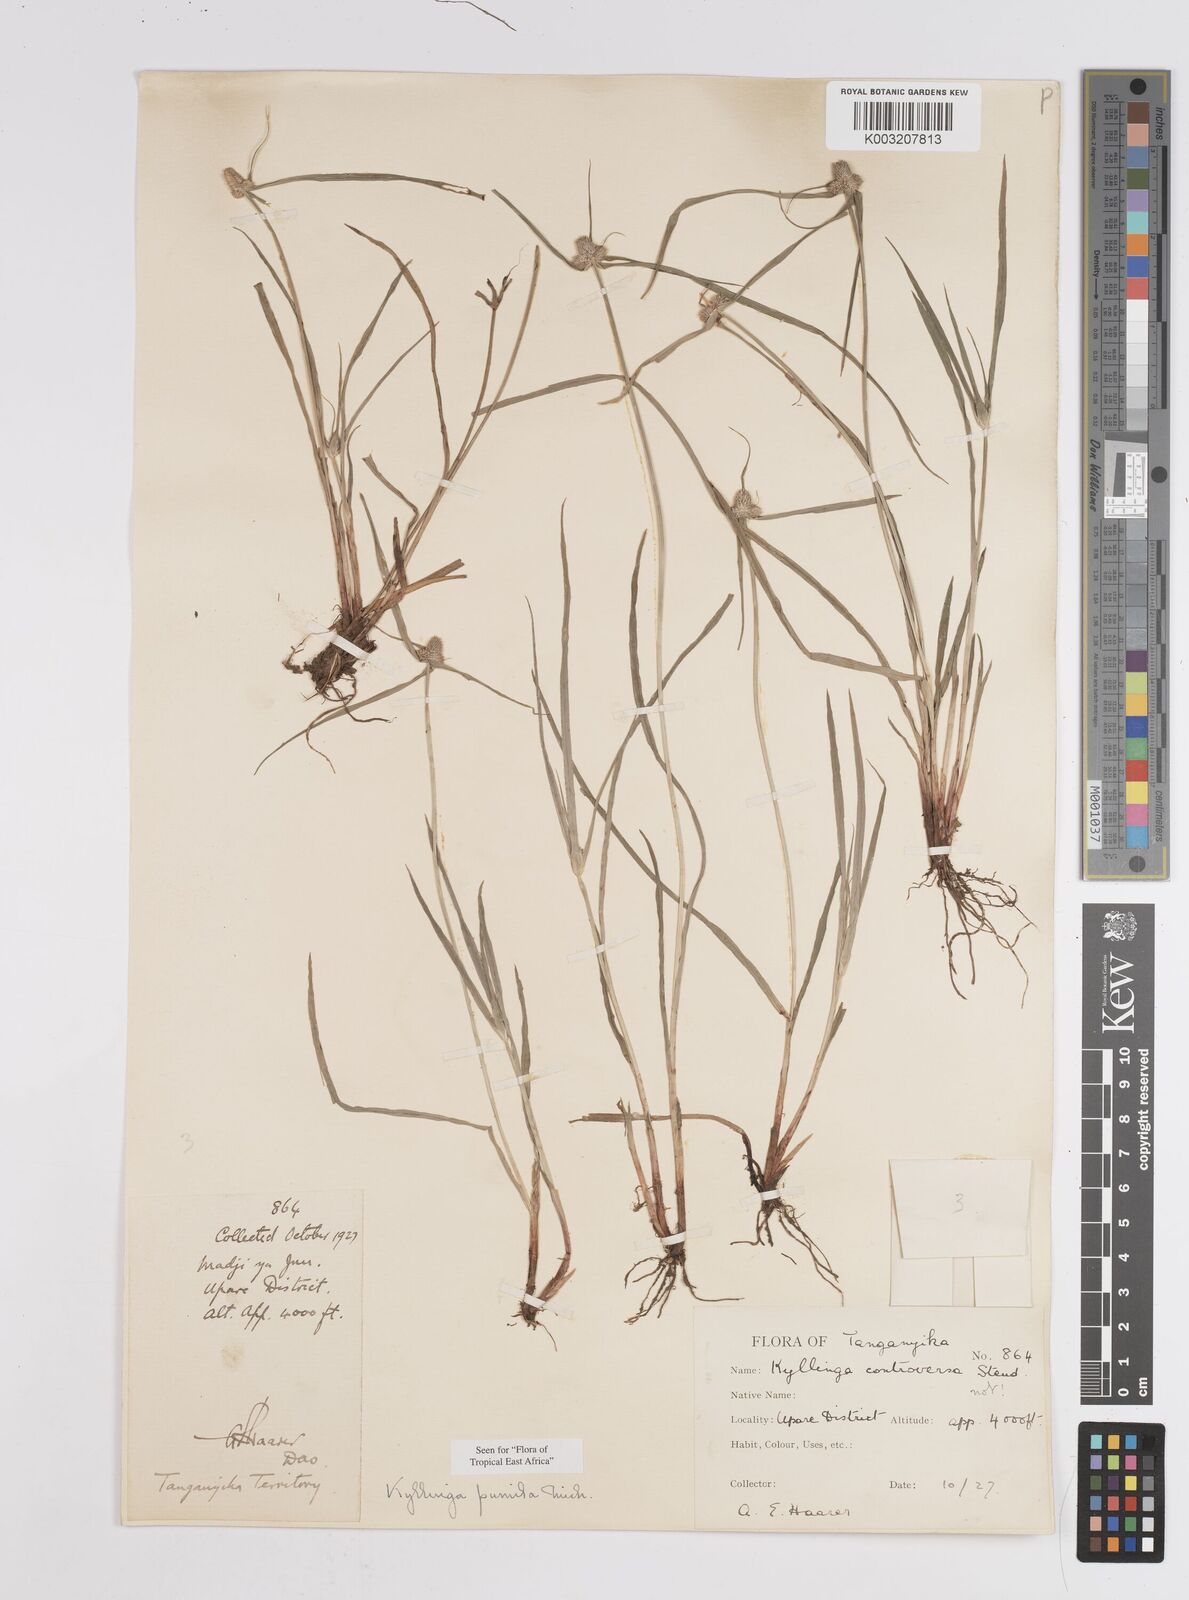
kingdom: Plantae
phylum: Tracheophyta
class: Liliopsida
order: Poales
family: Cyperaceae
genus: Cyperus
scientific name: Cyperus hortensis
